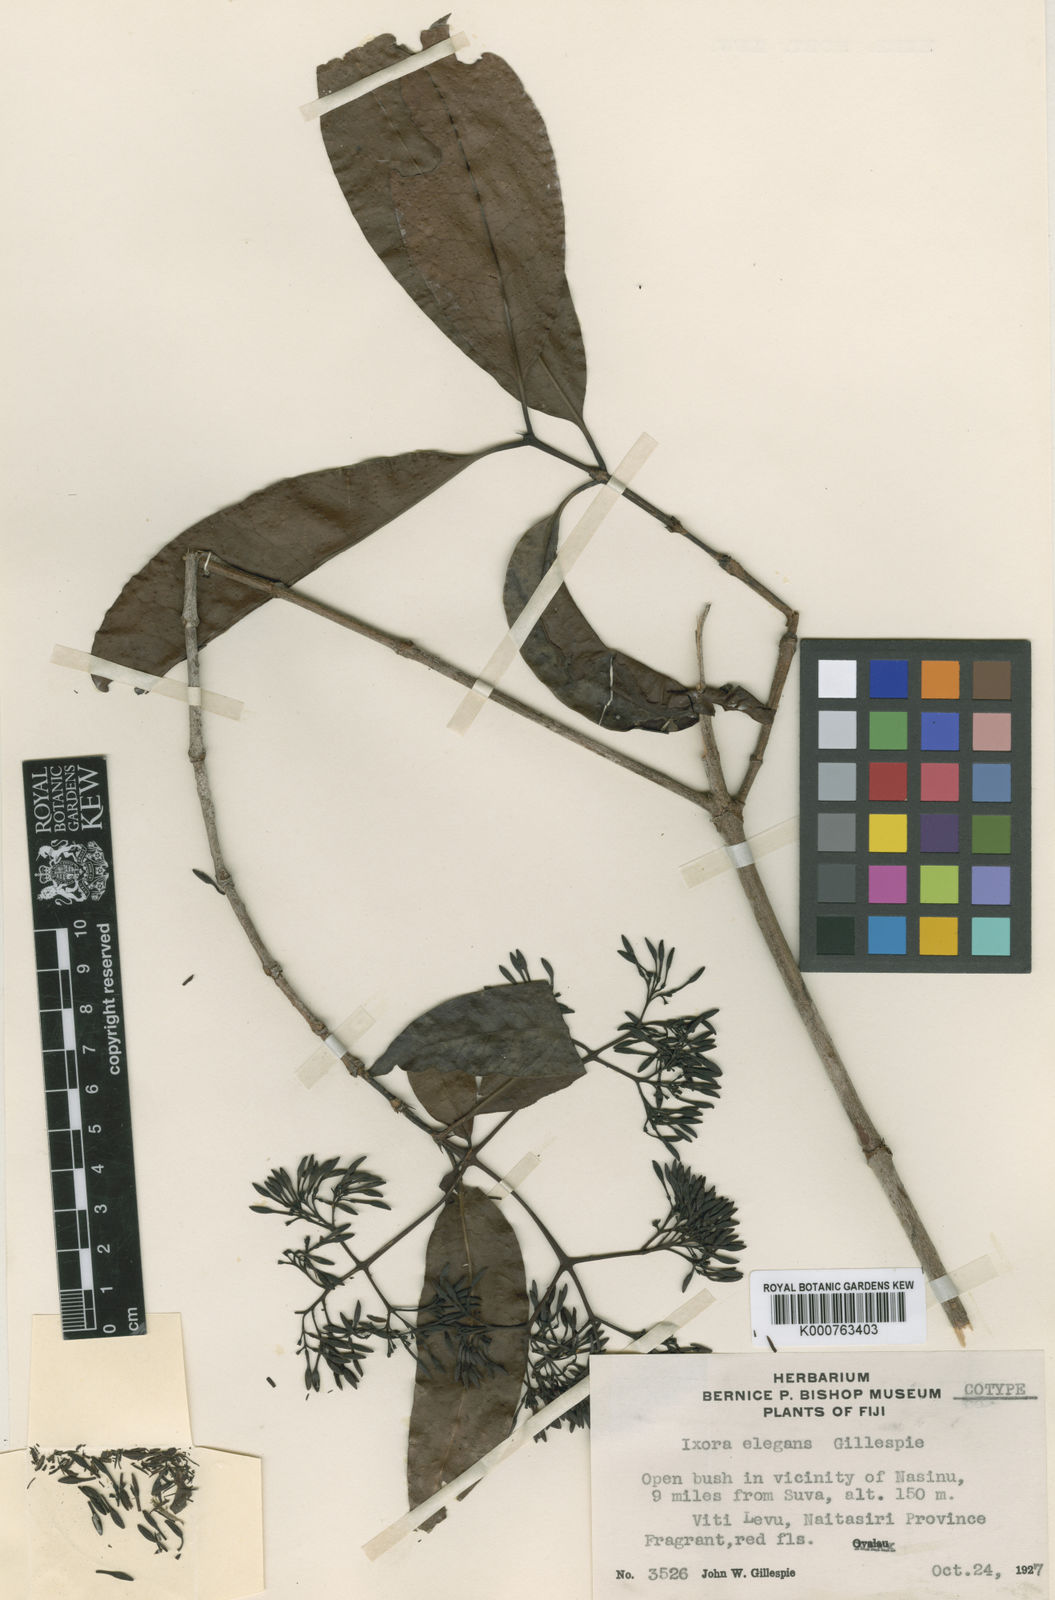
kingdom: Plantae
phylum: Tracheophyta
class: Magnoliopsida
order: Gentianales
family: Rubiaceae
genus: Ixora
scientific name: Ixora elegans
